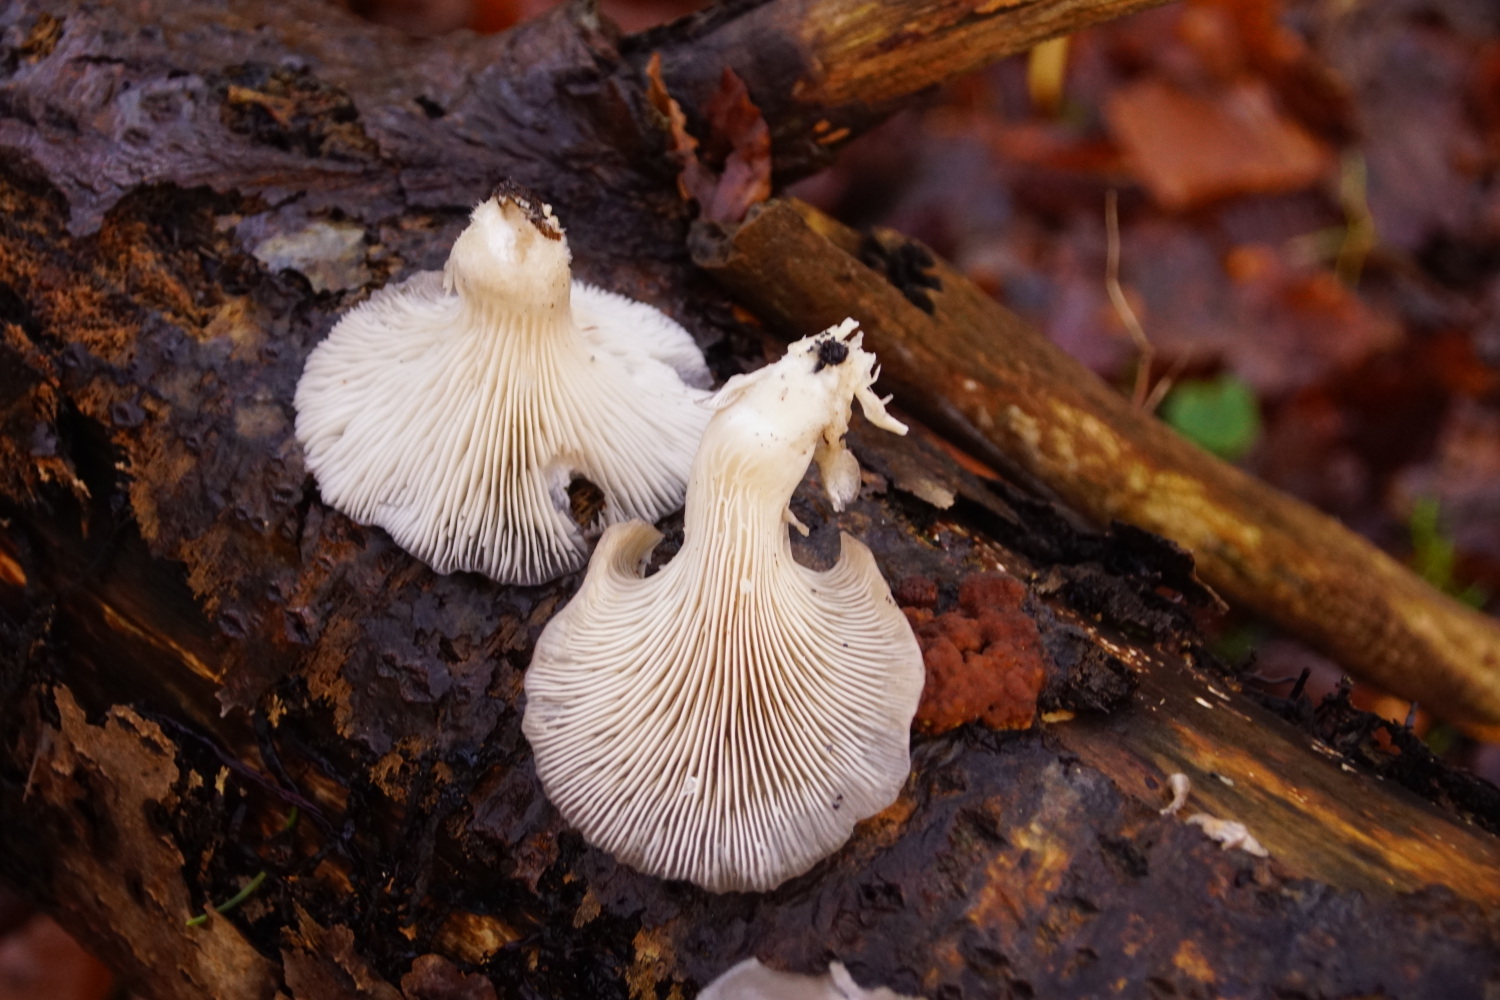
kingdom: Fungi
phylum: Basidiomycota
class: Agaricomycetes
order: Agaricales
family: Pleurotaceae
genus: Pleurotus
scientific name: Pleurotus ostreatus
